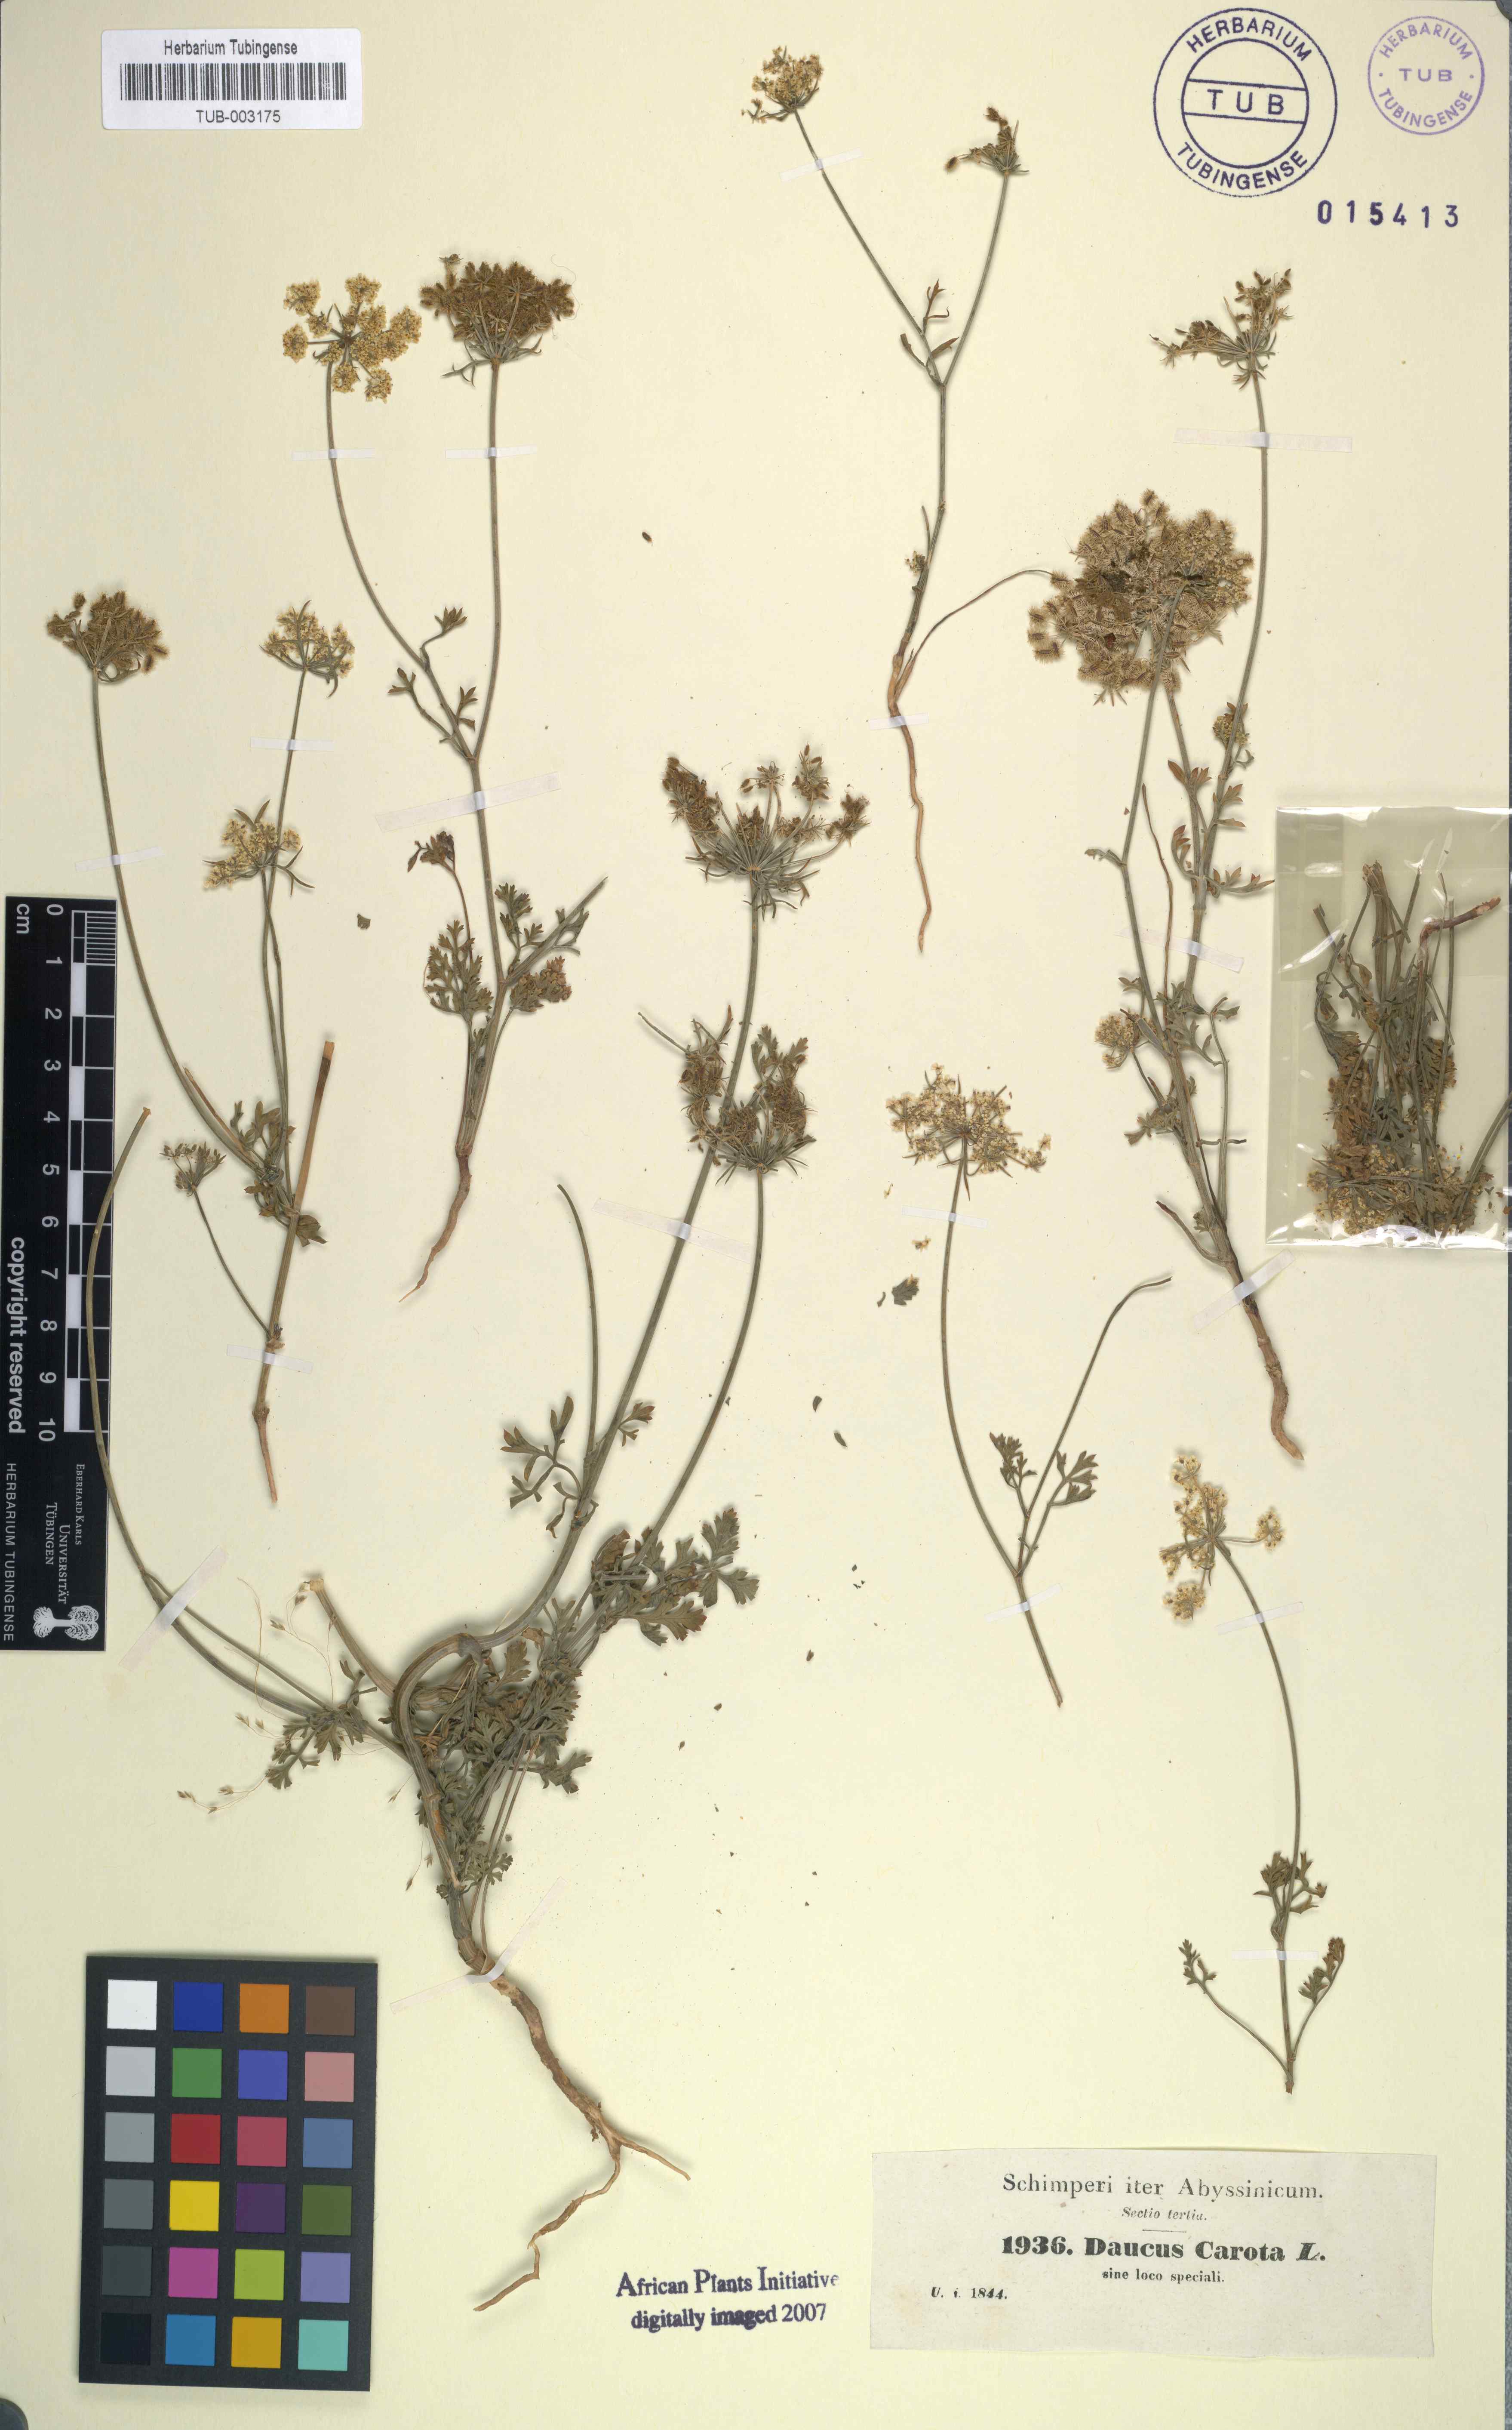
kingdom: Plantae
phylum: Tracheophyta
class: Magnoliopsida
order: Apiales
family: Apiaceae
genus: Daucus
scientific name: Daucus carota
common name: Wild carrot
